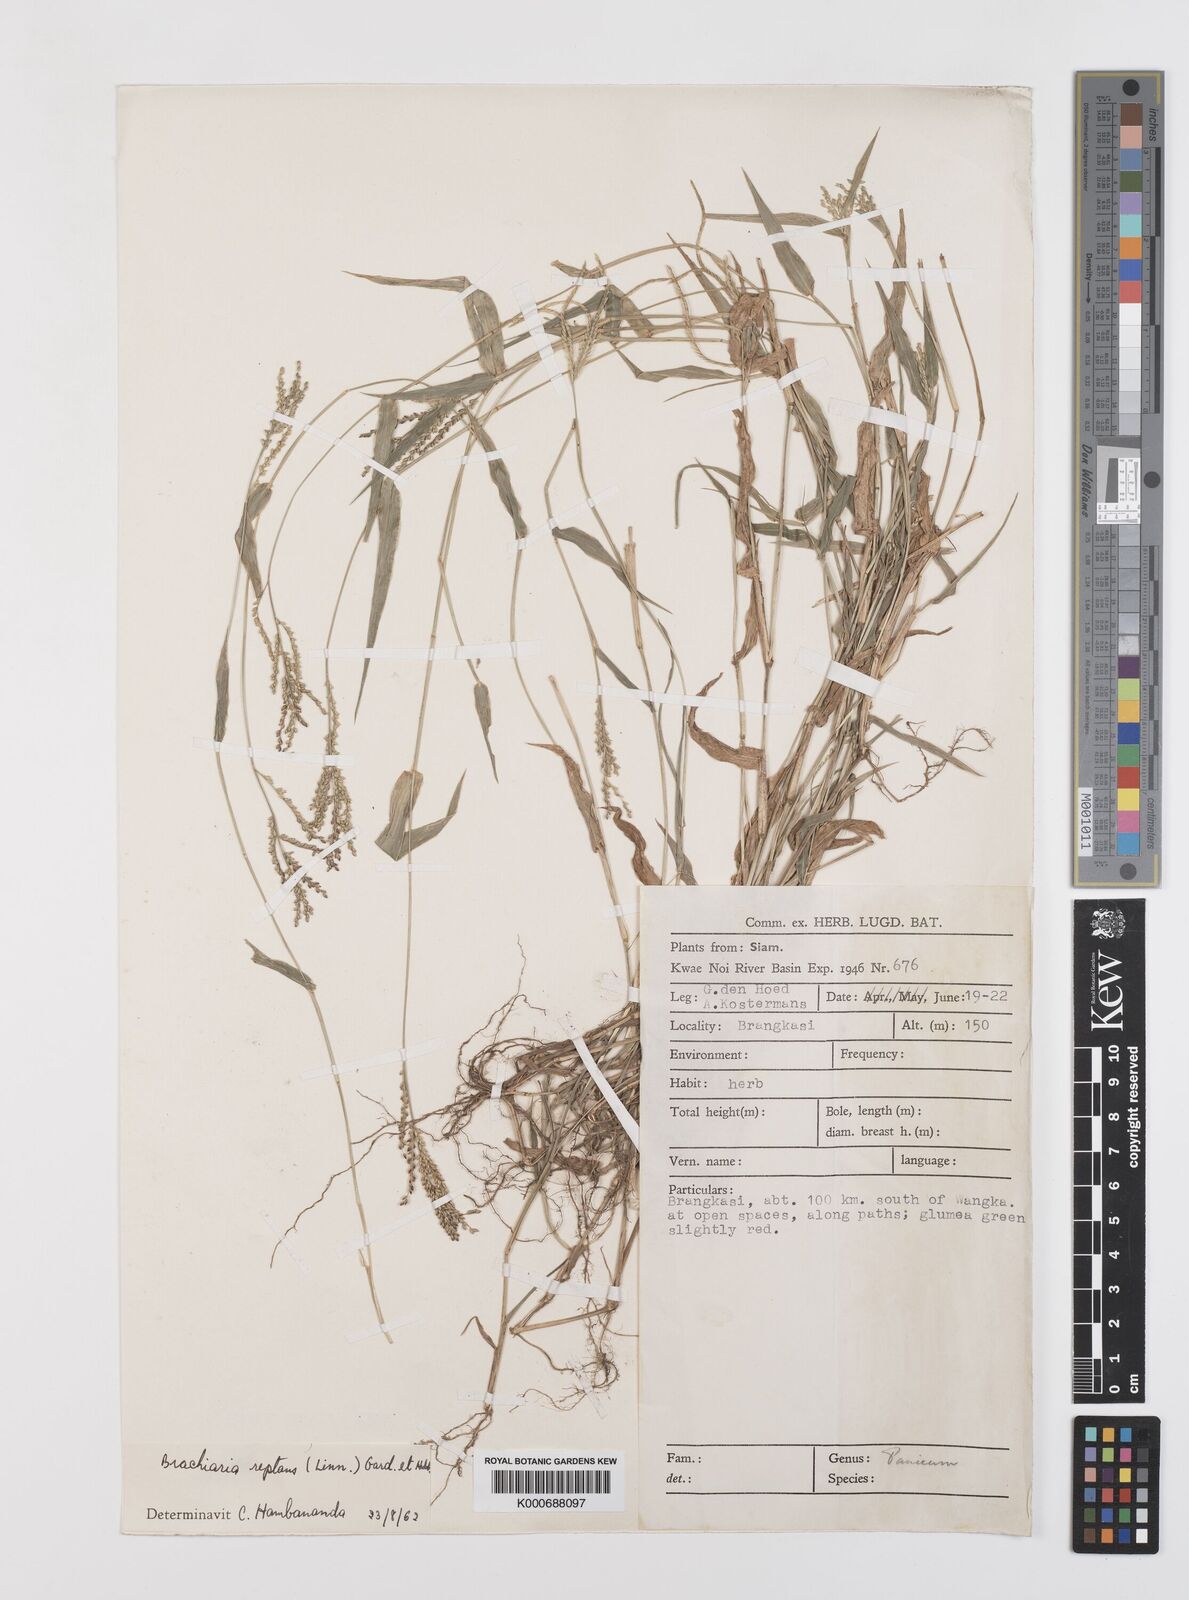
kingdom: Plantae
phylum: Tracheophyta
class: Liliopsida
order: Poales
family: Poaceae
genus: Urochloa
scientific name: Urochloa reptans
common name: Sprawling signalgrass
